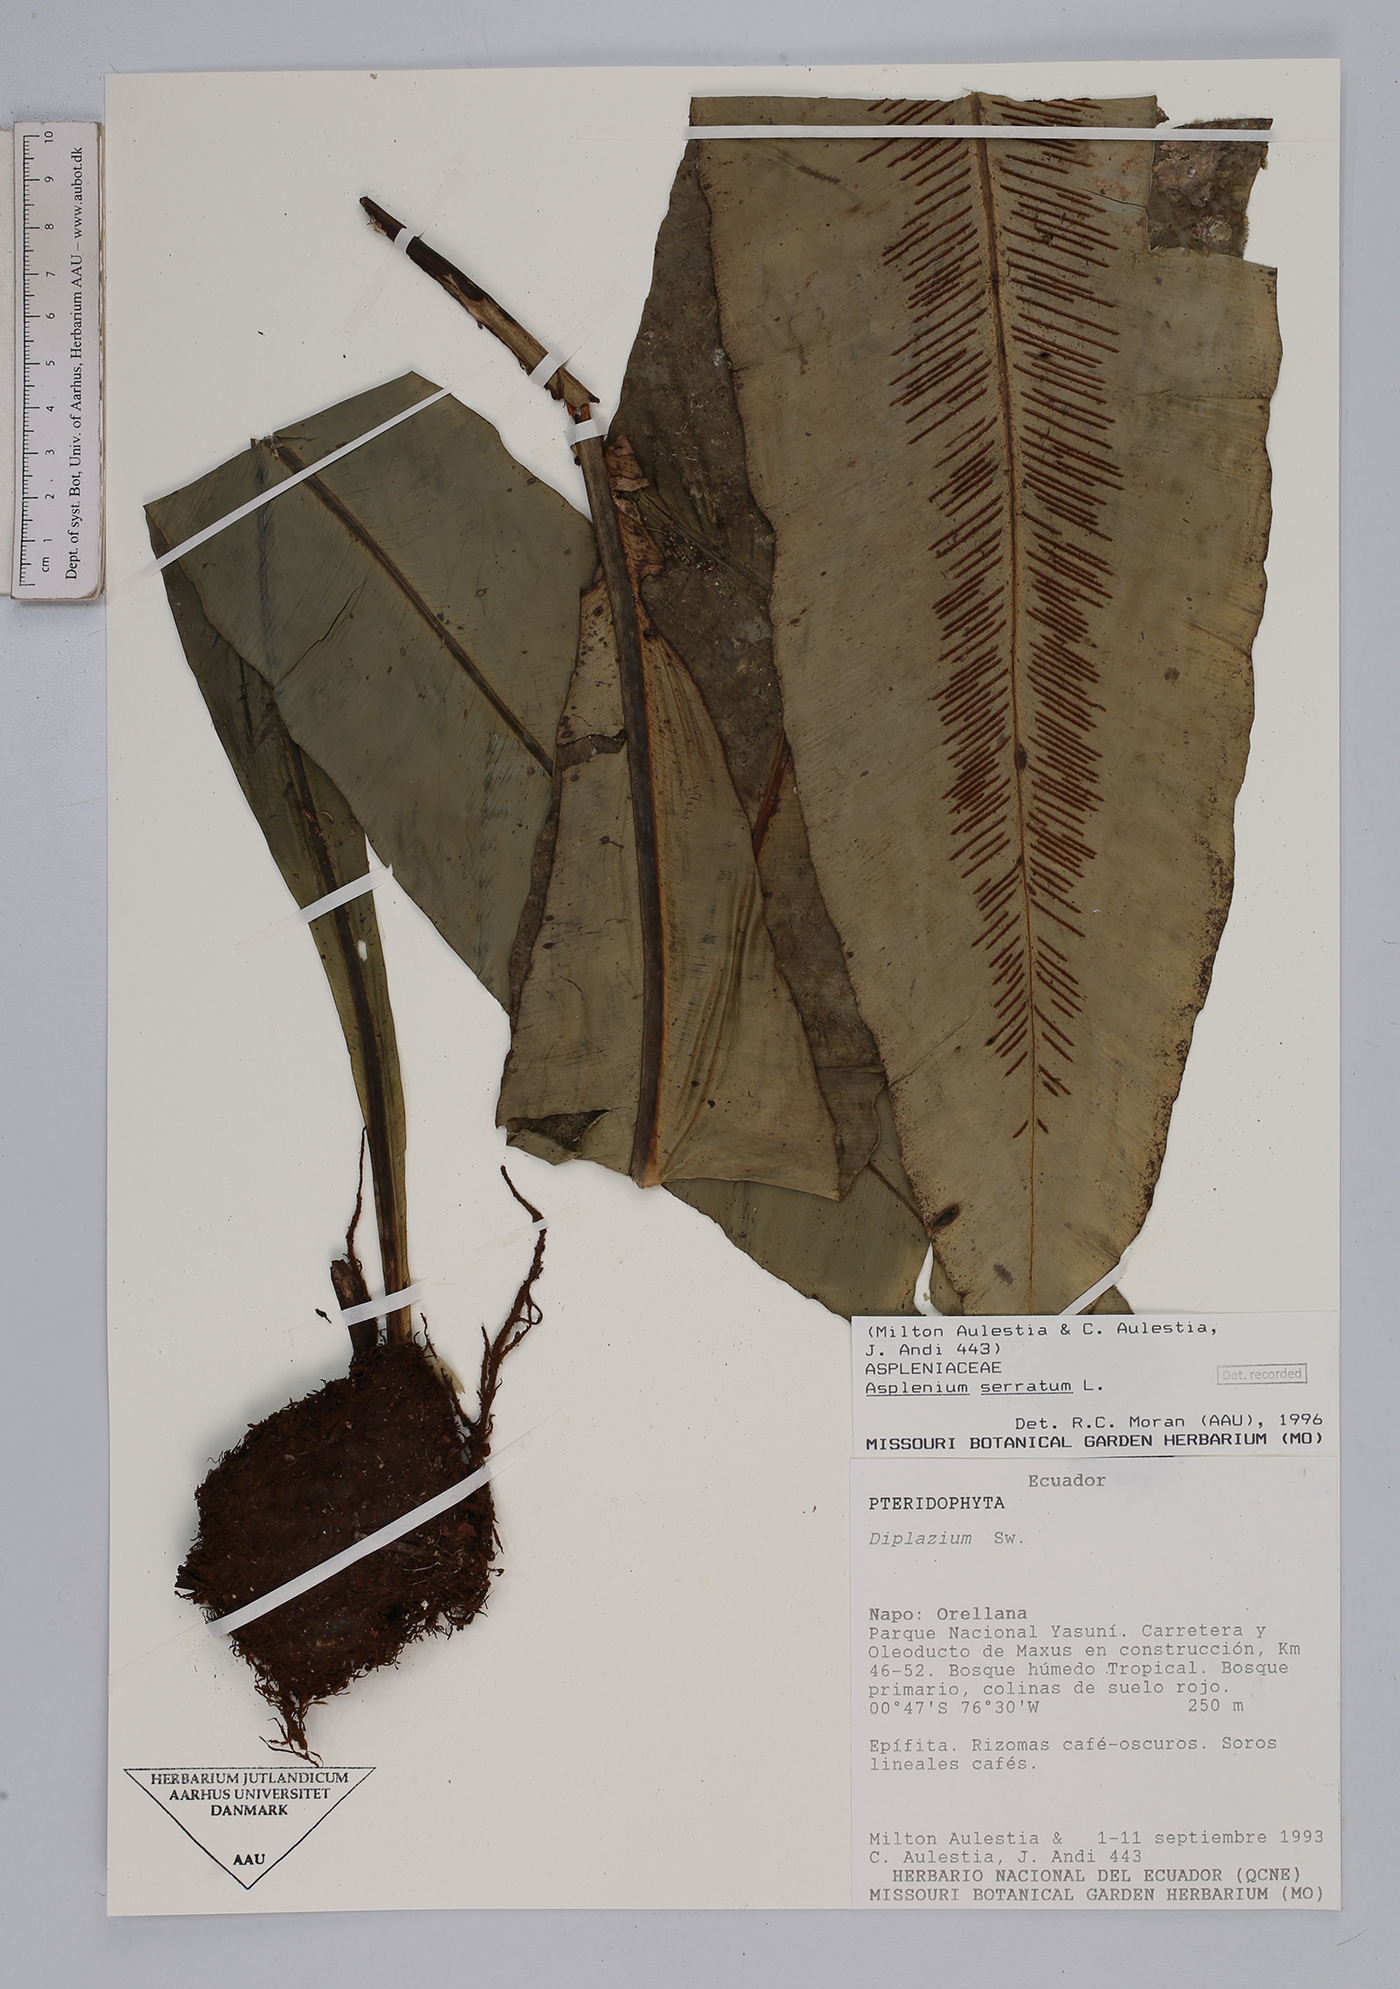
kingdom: Plantae
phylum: Tracheophyta
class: Polypodiopsida
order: Polypodiales
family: Aspleniaceae
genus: Asplenium
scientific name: Asplenium serratum
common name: Wild birdnest fern
